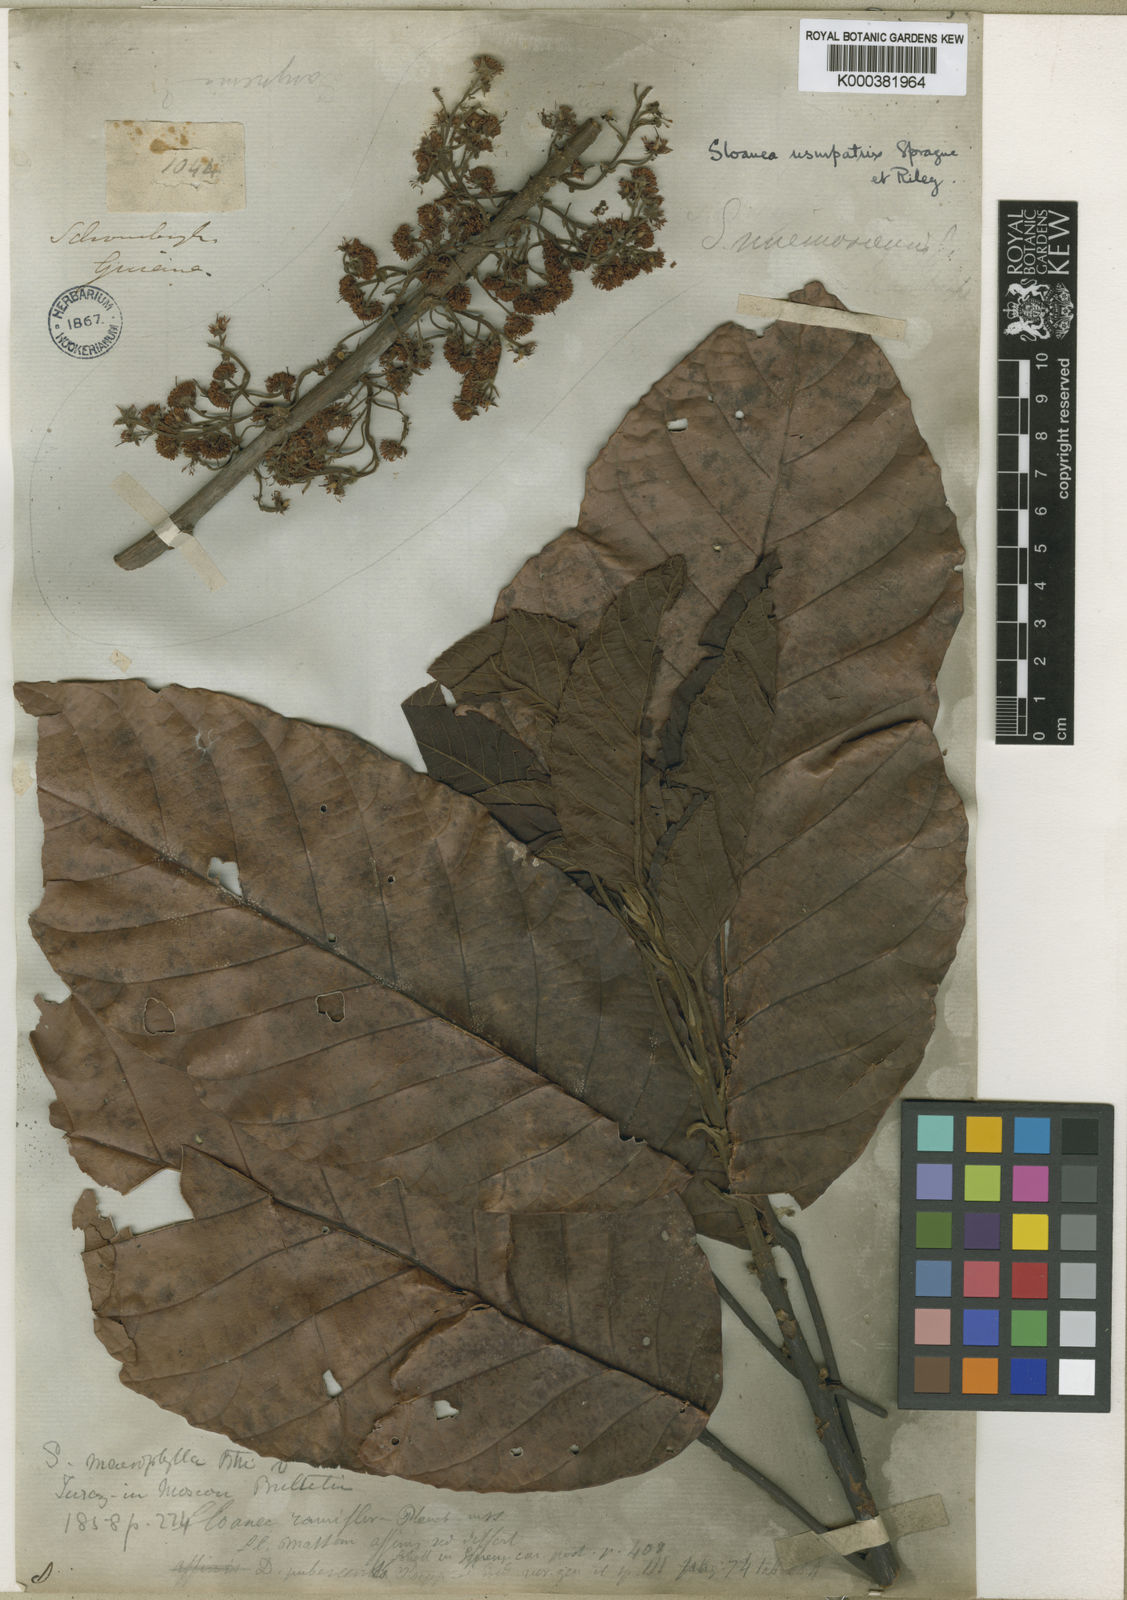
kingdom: Plantae
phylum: Tracheophyta
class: Magnoliopsida
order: Oxalidales
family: Elaeocarpaceae
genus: Sloanea
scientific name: Sloanea tuerckheimii
